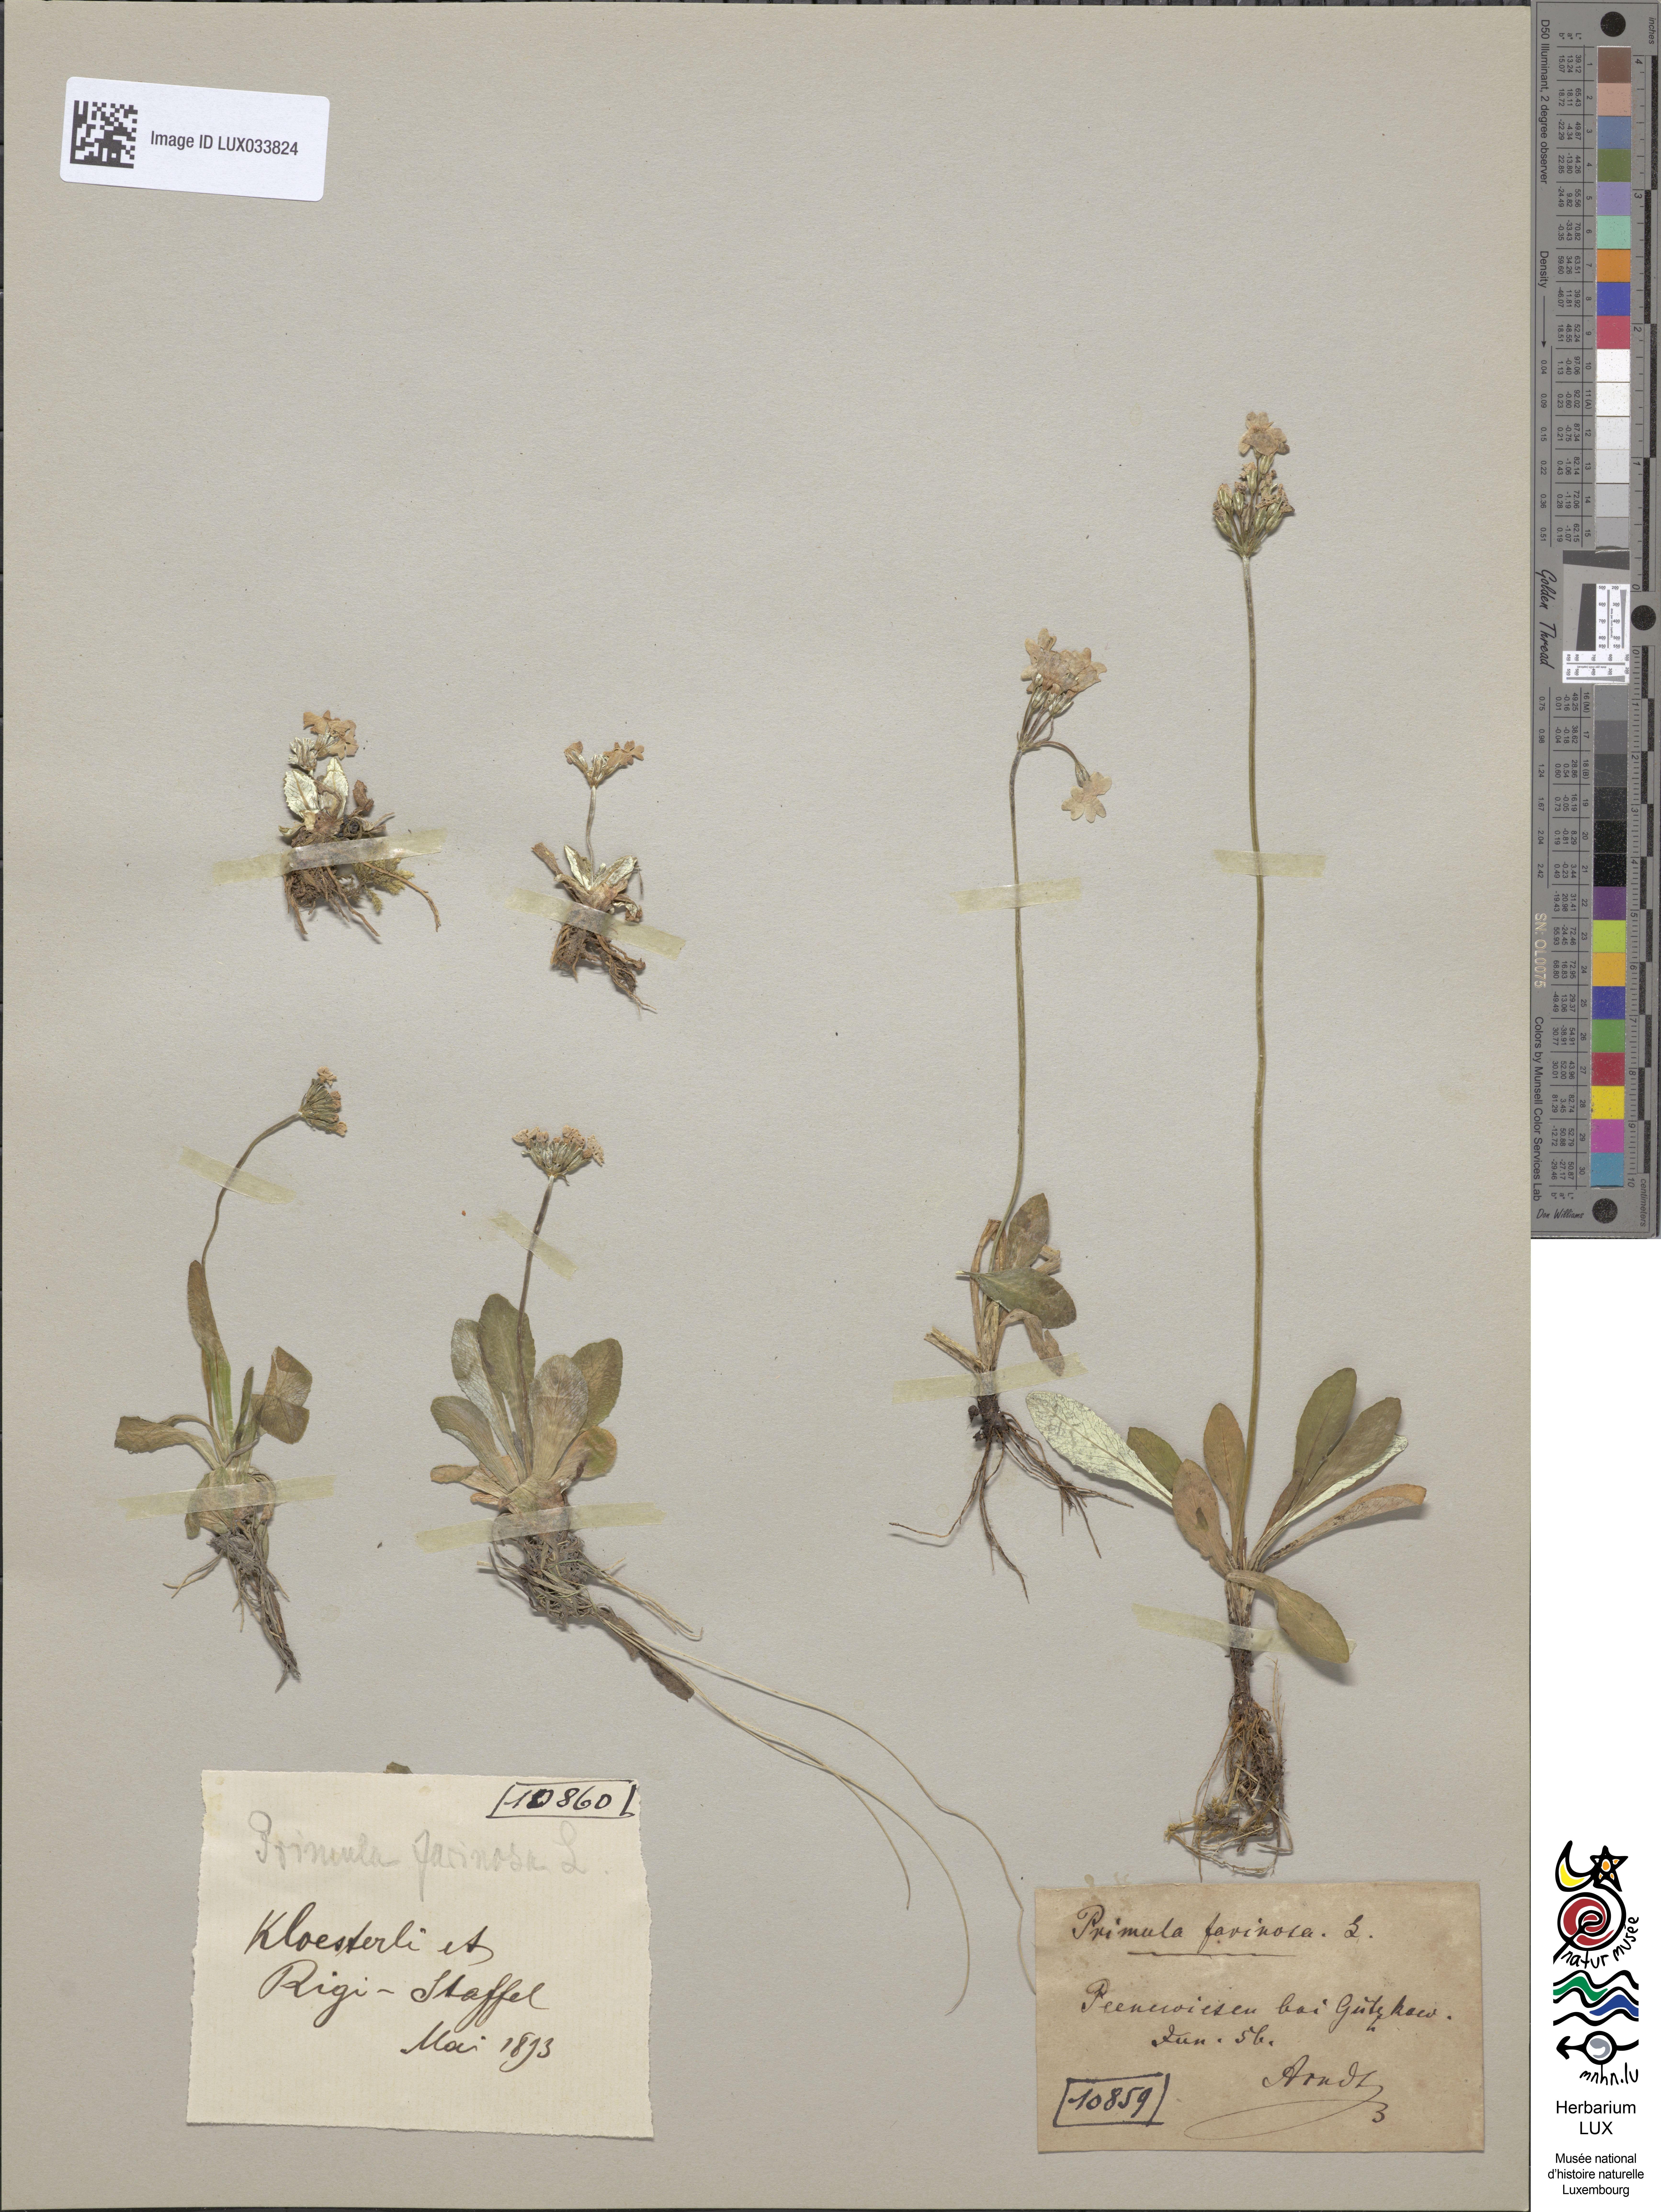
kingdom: Plantae
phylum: Tracheophyta
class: Magnoliopsida
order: Ericales
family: Primulaceae
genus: Primula
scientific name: Primula farinosa
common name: Bird's-eye primrose
